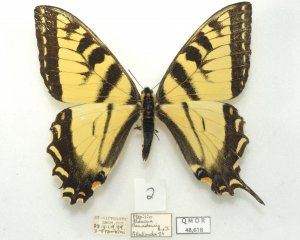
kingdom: Animalia
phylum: Arthropoda
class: Insecta
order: Lepidoptera
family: Papilionidae
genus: Pterourus
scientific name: Pterourus canadensis
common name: Canadian Tiger Swallowtail
